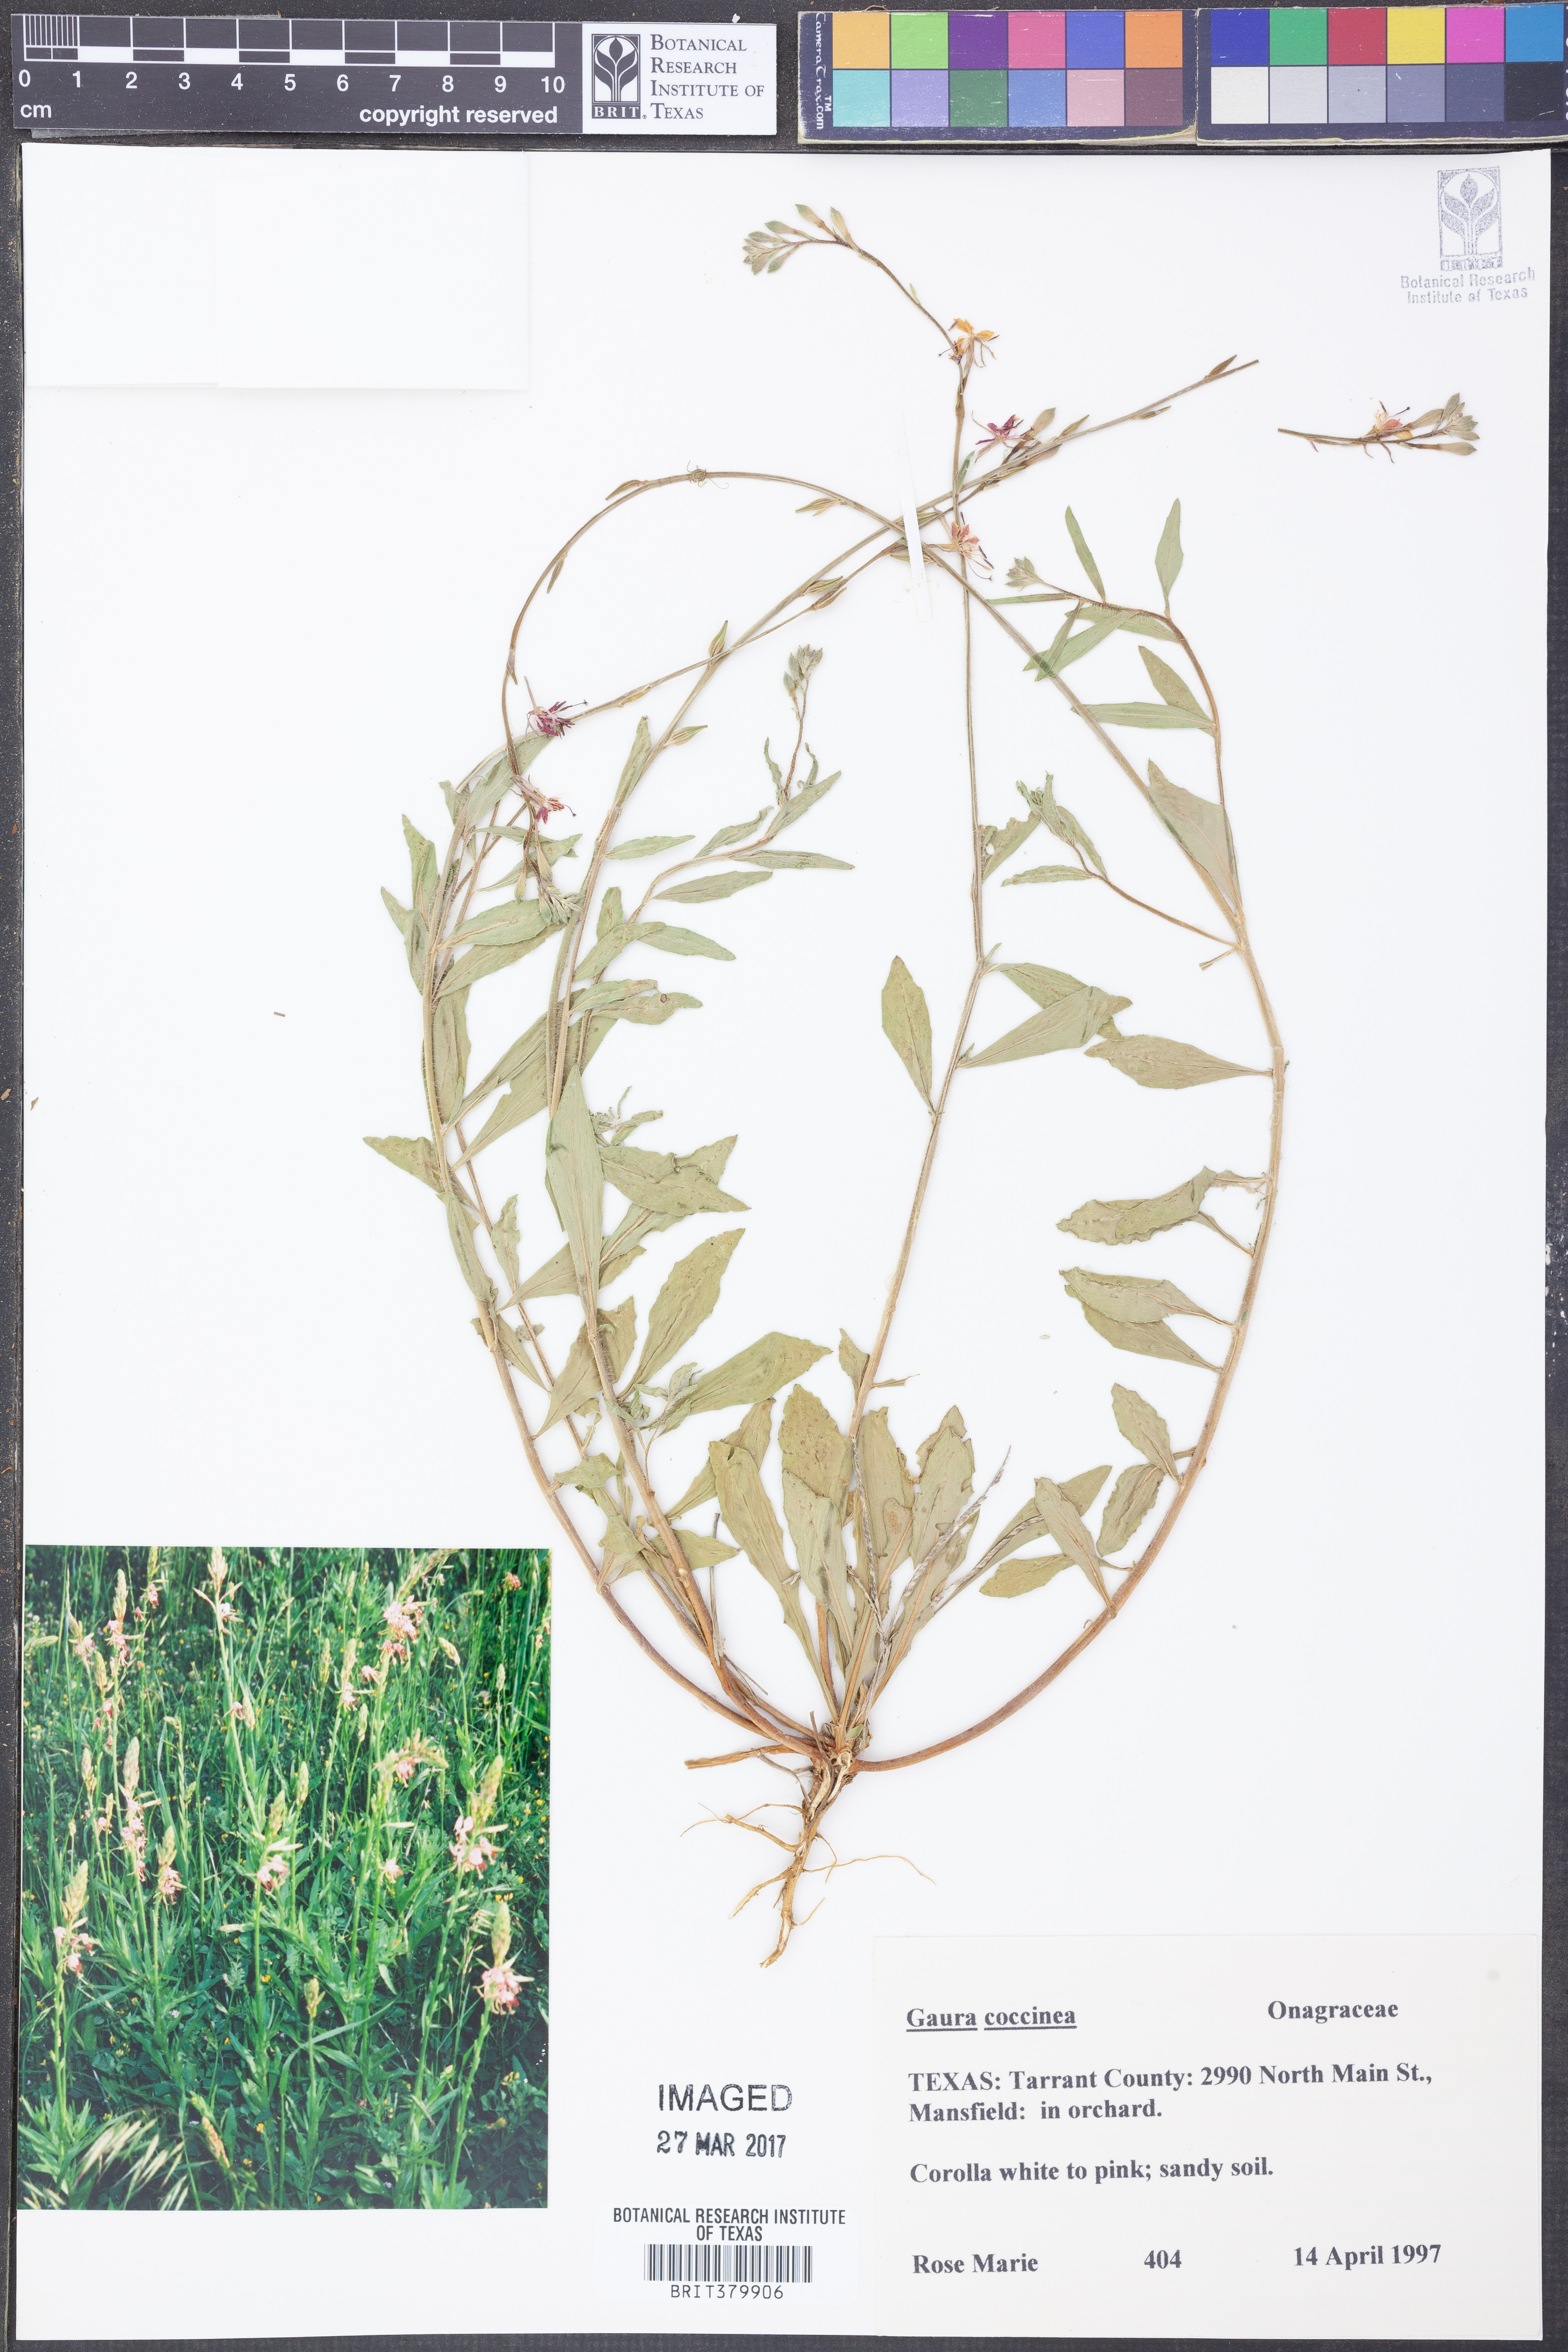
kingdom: Plantae
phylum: Tracheophyta
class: Magnoliopsida
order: Myrtales
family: Onagraceae
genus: Oenothera
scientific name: Oenothera suffrutescens
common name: Scarlet beeblossom
